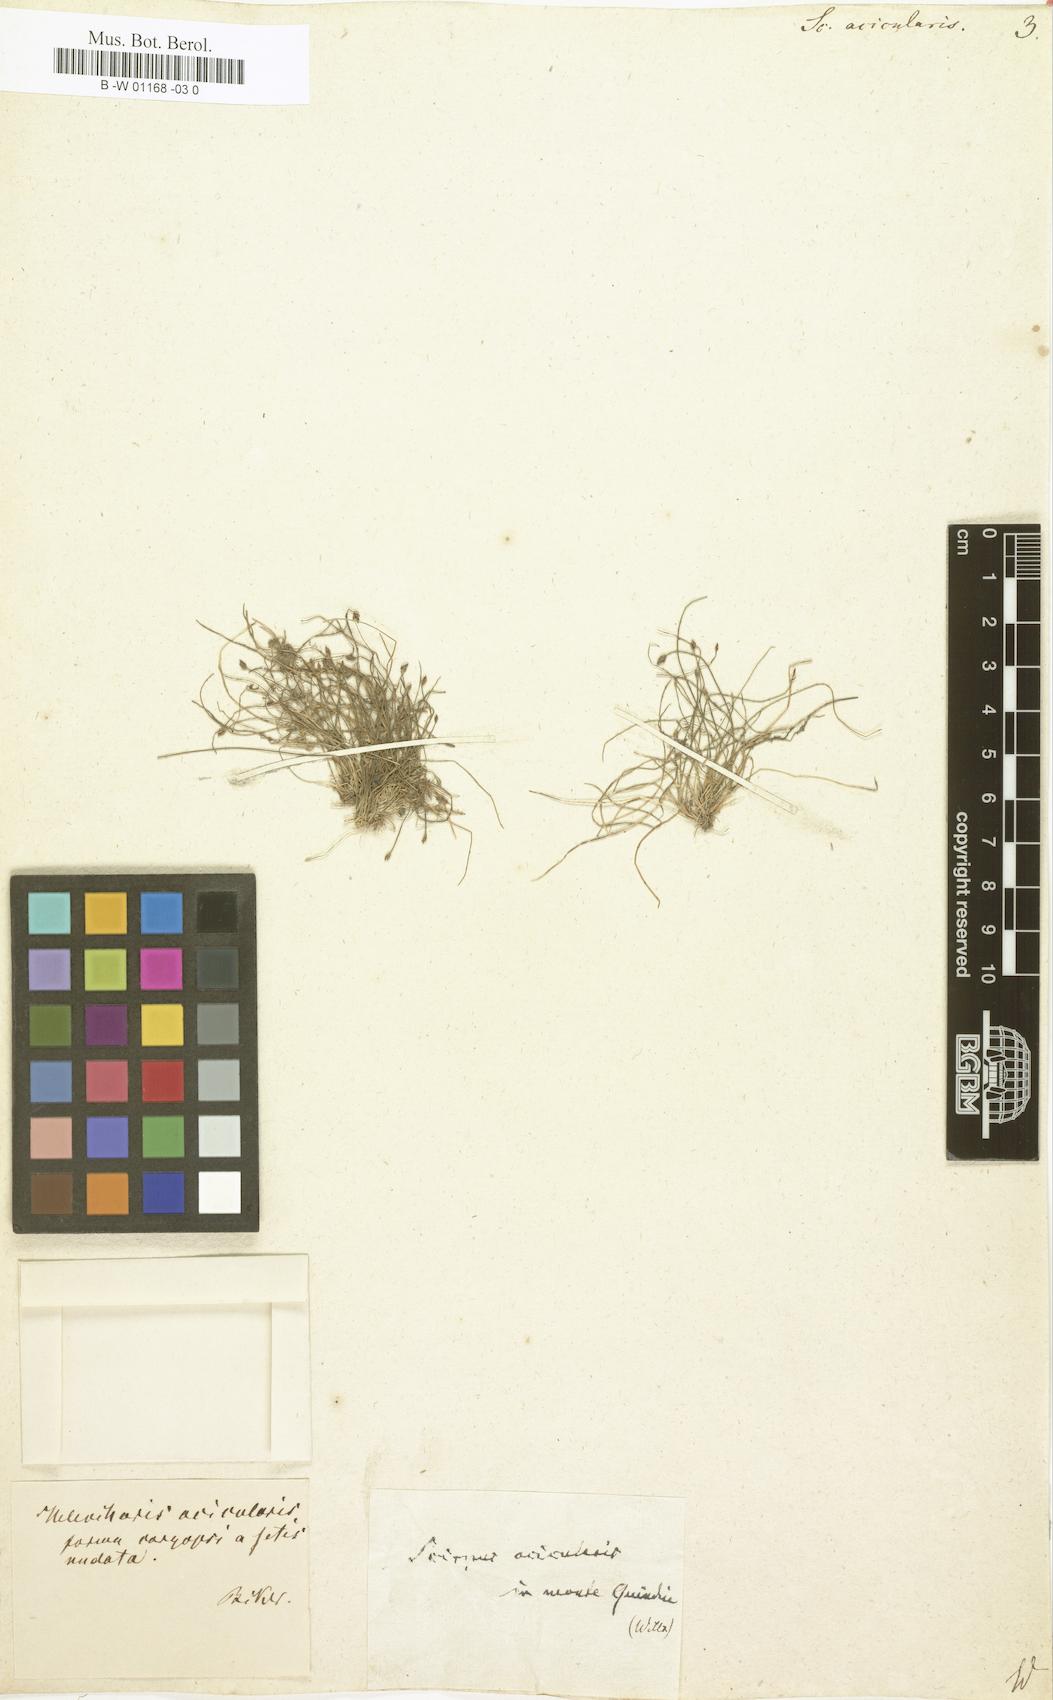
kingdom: Plantae
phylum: Tracheophyta
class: Liliopsida
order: Poales
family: Cyperaceae
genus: Scirpus
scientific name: Scirpus acicularis
